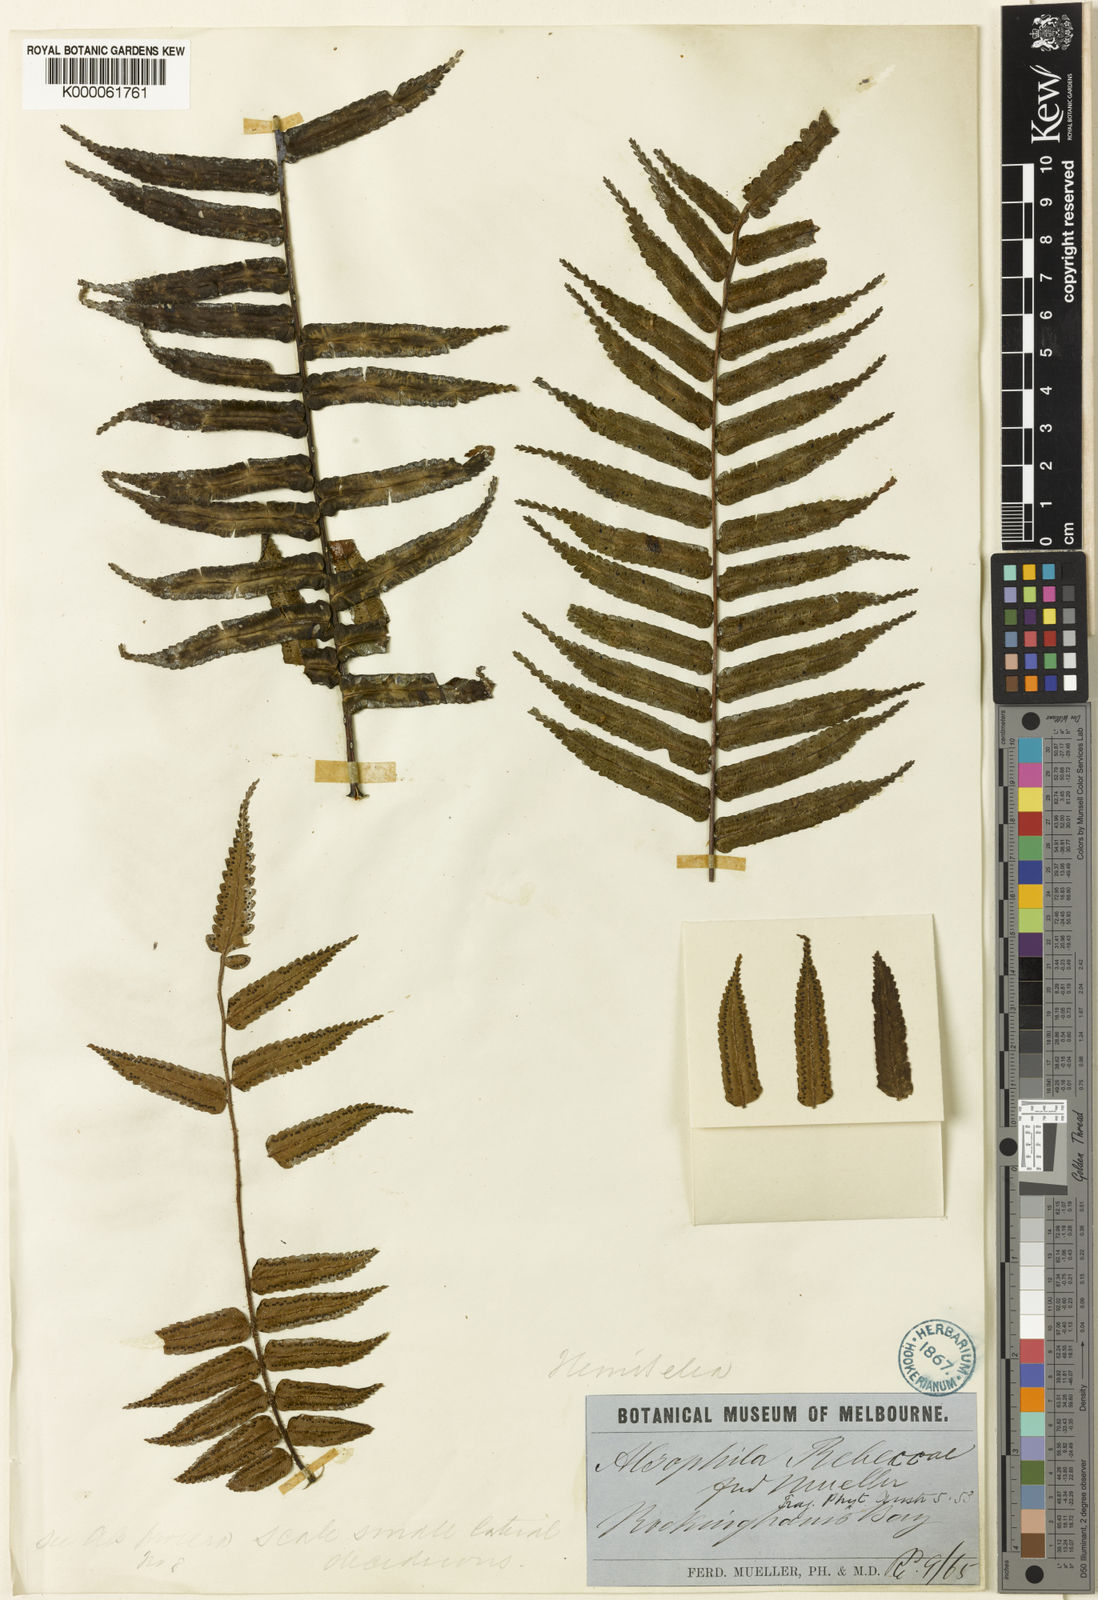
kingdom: Plantae
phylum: Tracheophyta
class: Polypodiopsida
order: Cyatheales
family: Cyatheaceae
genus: Gymnosphaera
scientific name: Gymnosphaera rebeccae
